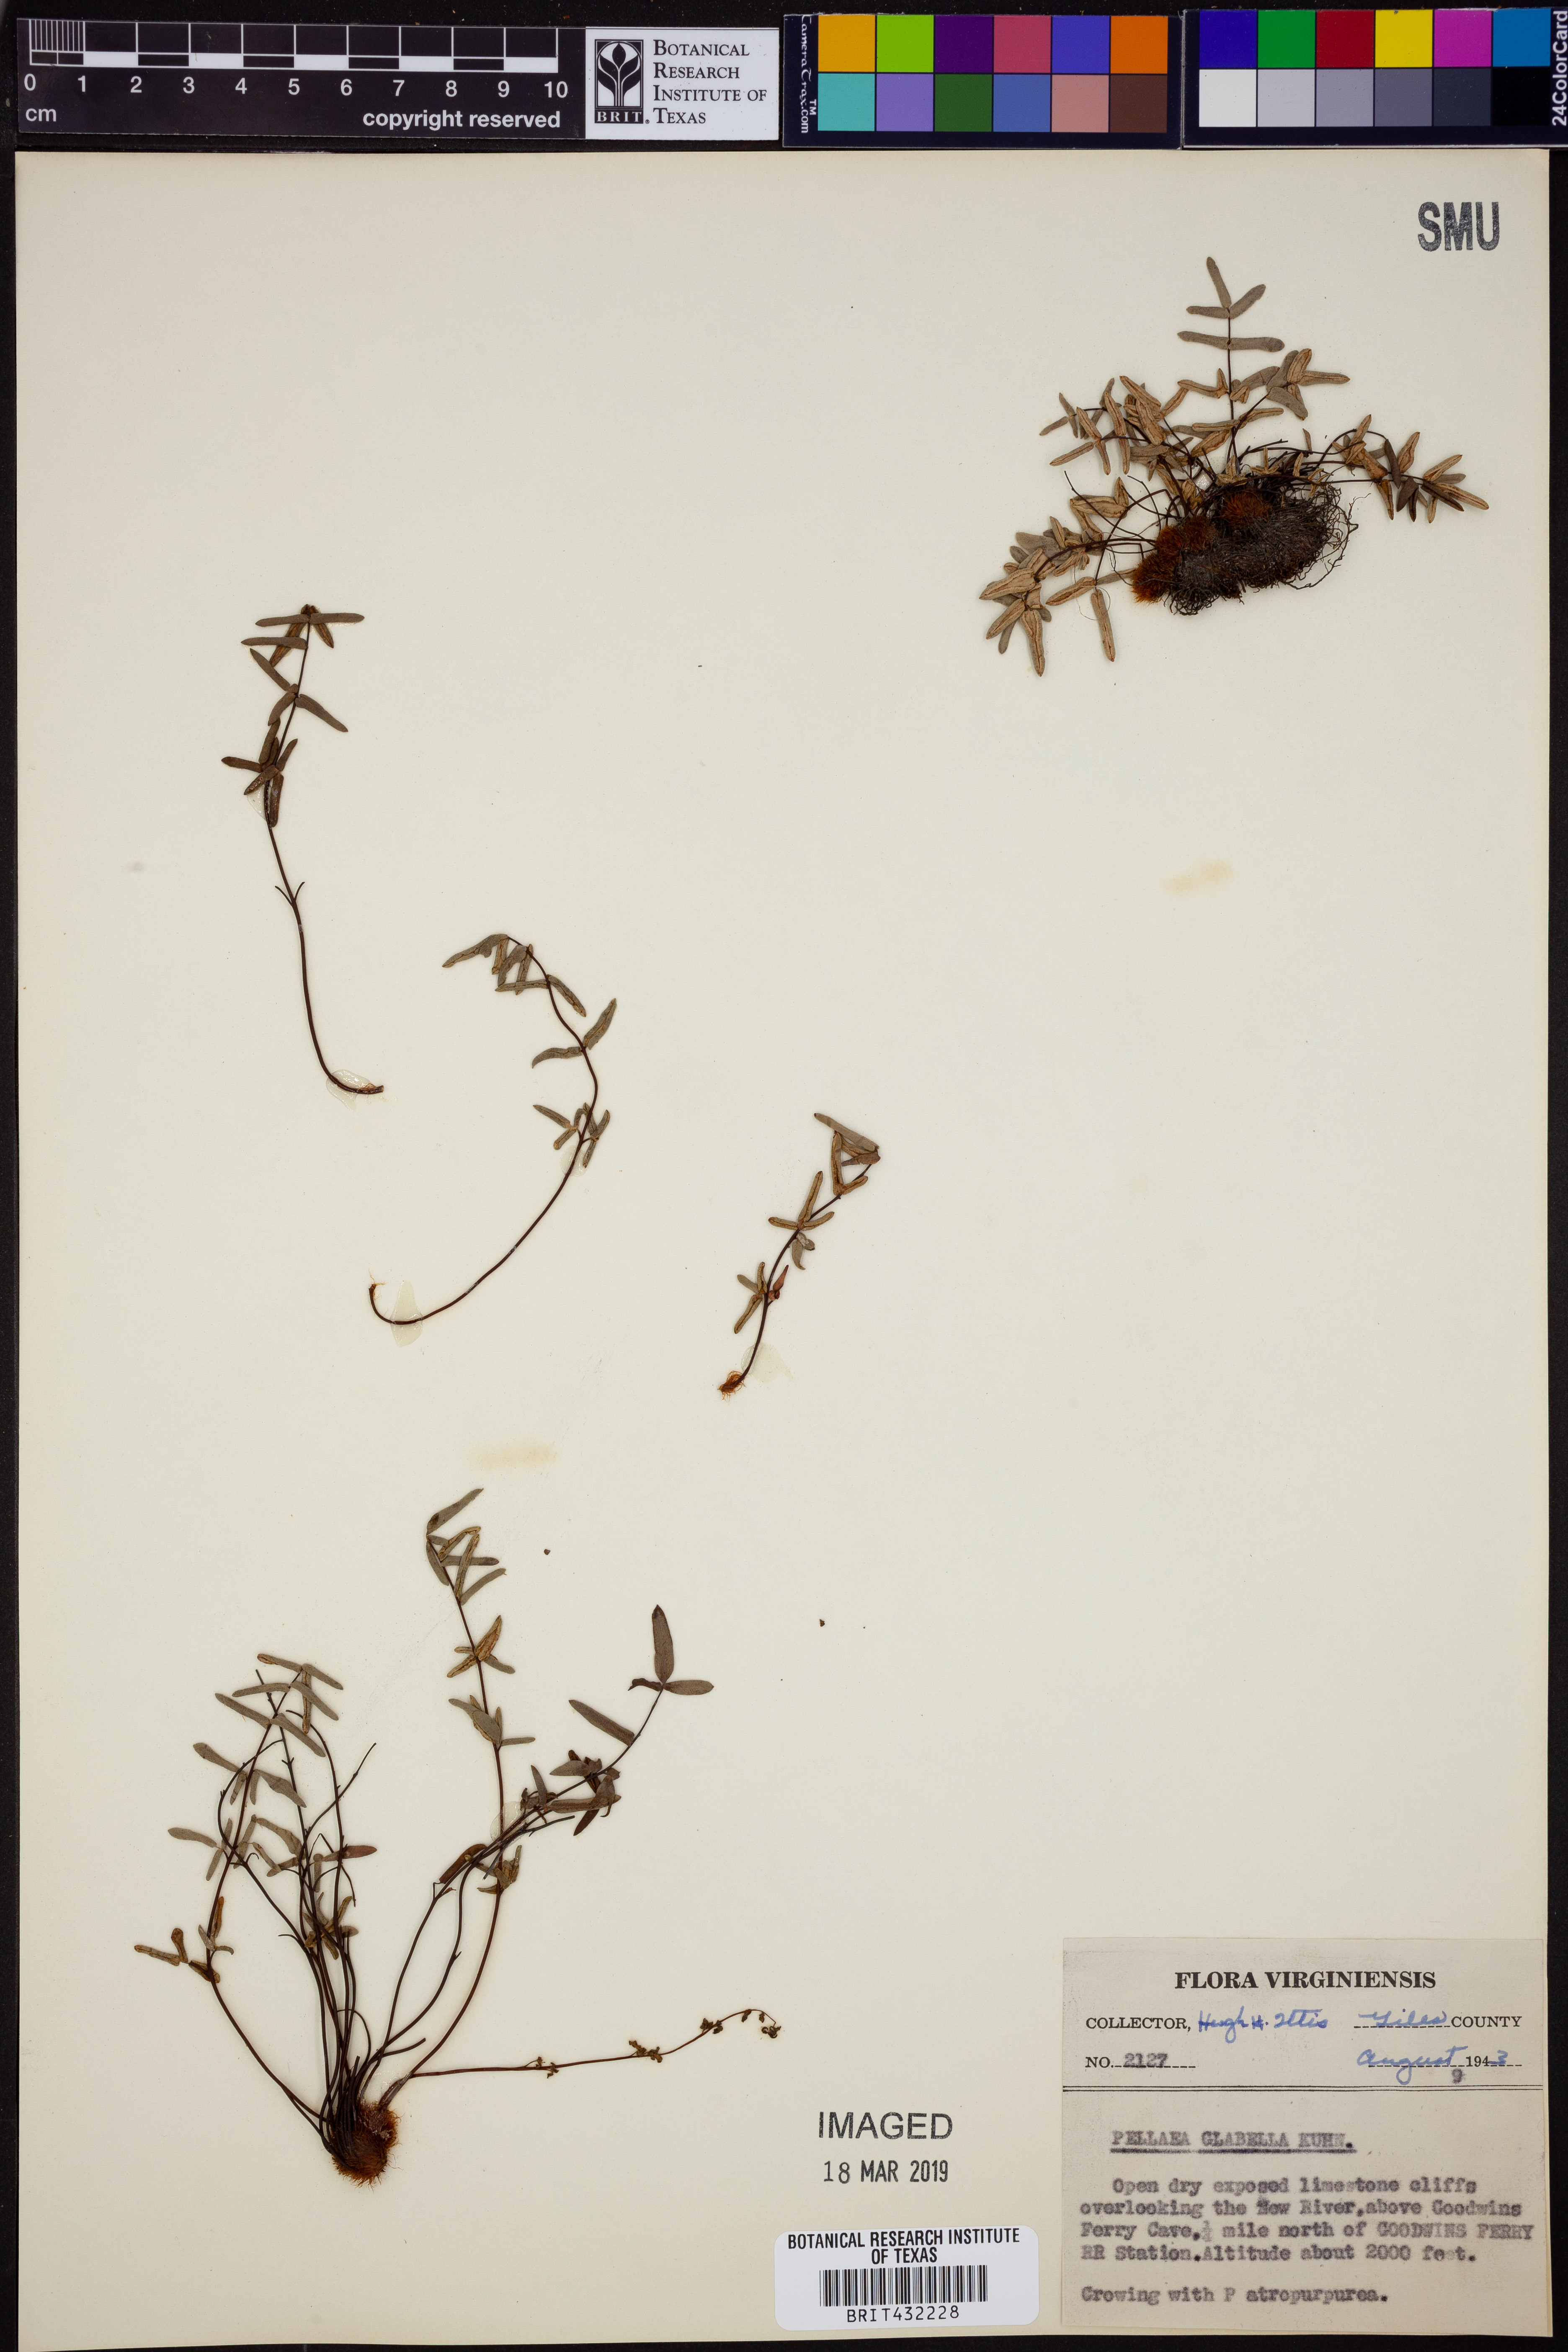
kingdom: Plantae
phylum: Tracheophyta
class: Polypodiopsida
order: Polypodiales
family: Pteridaceae
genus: Pellaea
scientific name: Pellaea glabella
